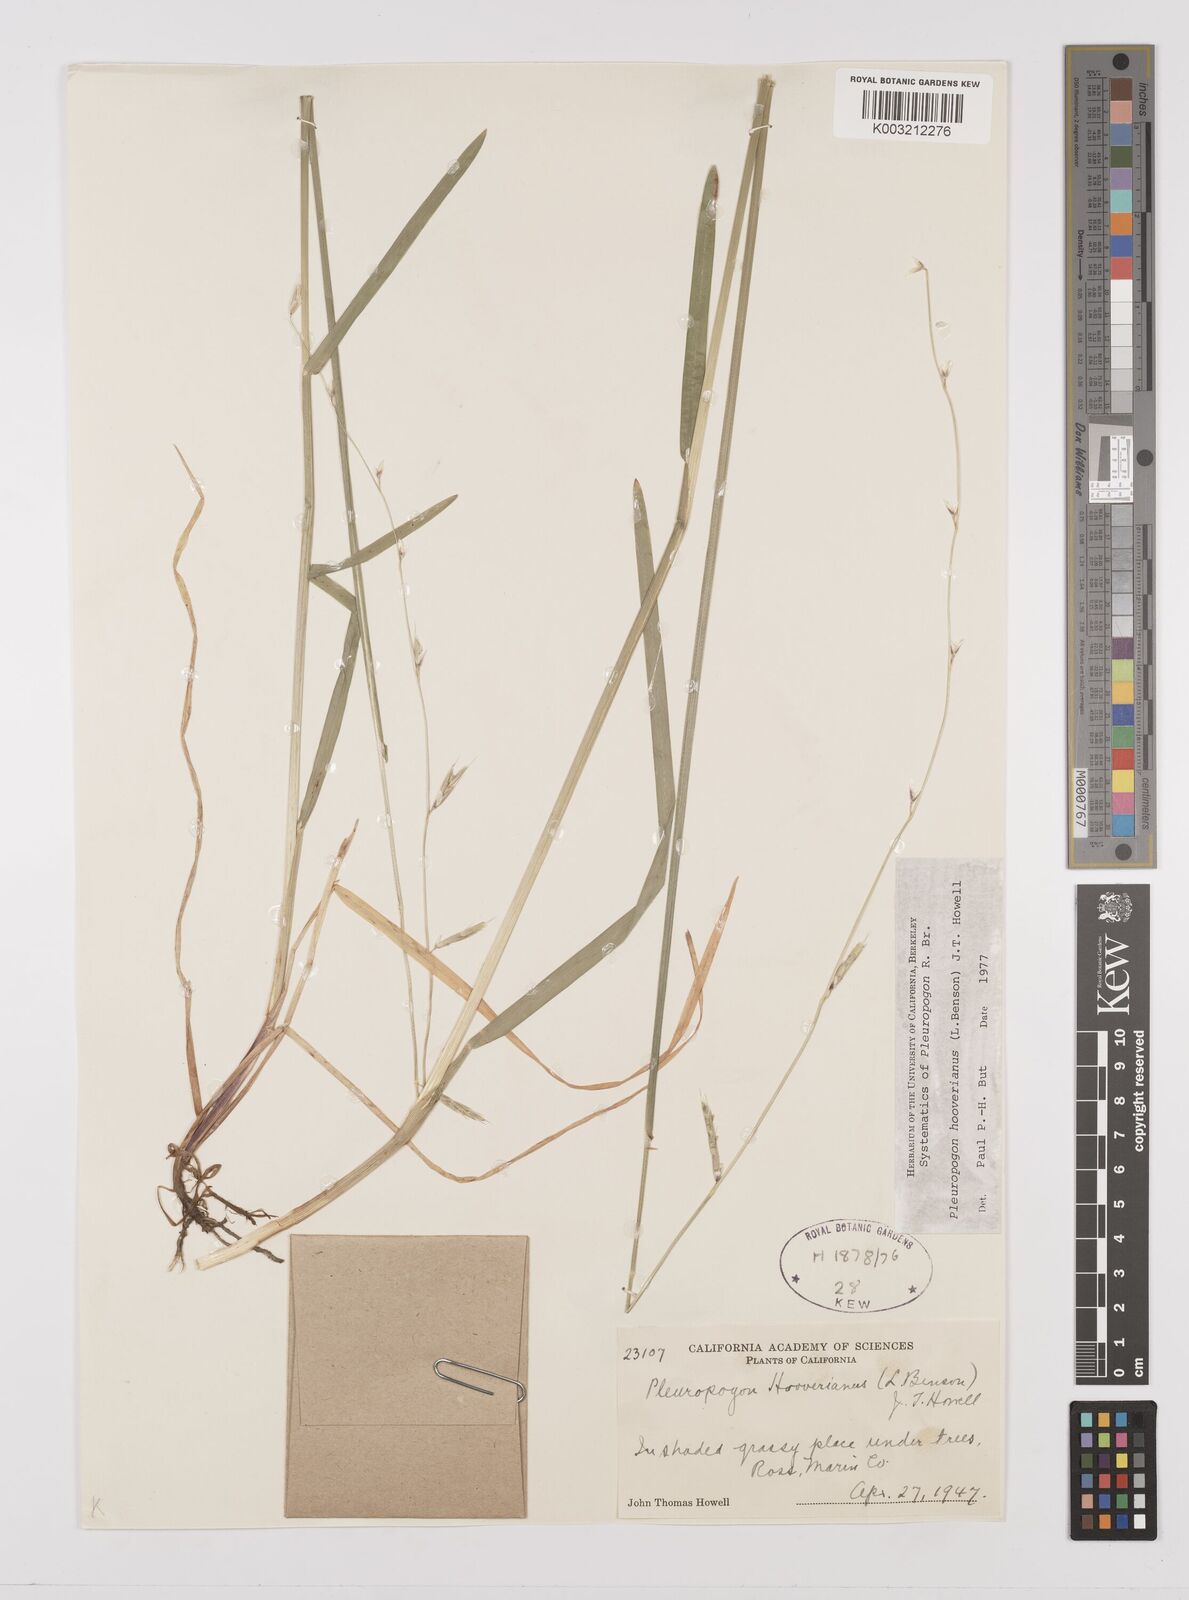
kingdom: Plantae
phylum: Tracheophyta
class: Liliopsida
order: Poales
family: Poaceae
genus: Pleuropogon
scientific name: Pleuropogon hooverianus
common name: North coast semaphore grass
